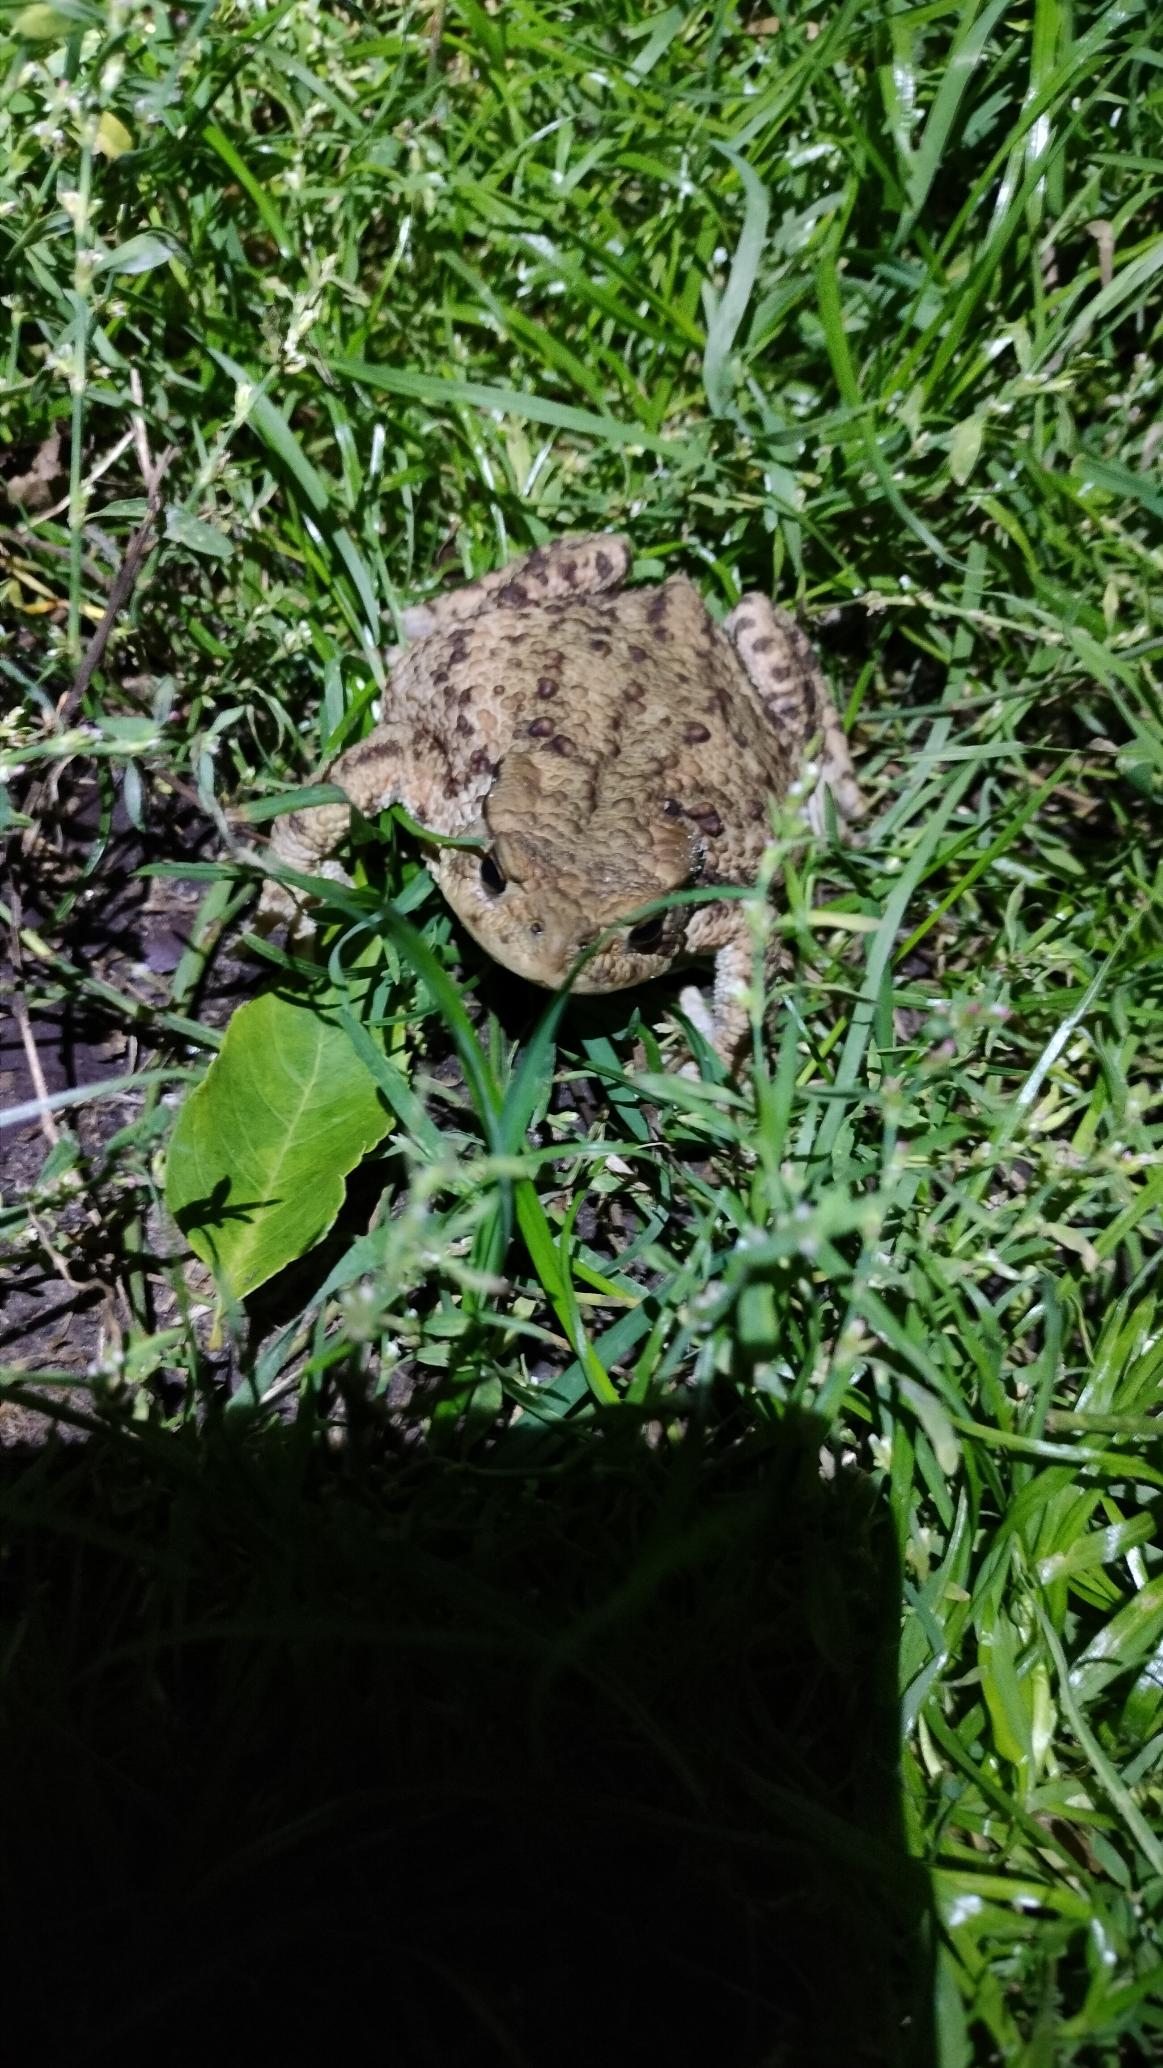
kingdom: Animalia
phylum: Chordata
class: Amphibia
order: Anura
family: Bufonidae
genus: Bufo
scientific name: Bufo bufo
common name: Skrubtudse
